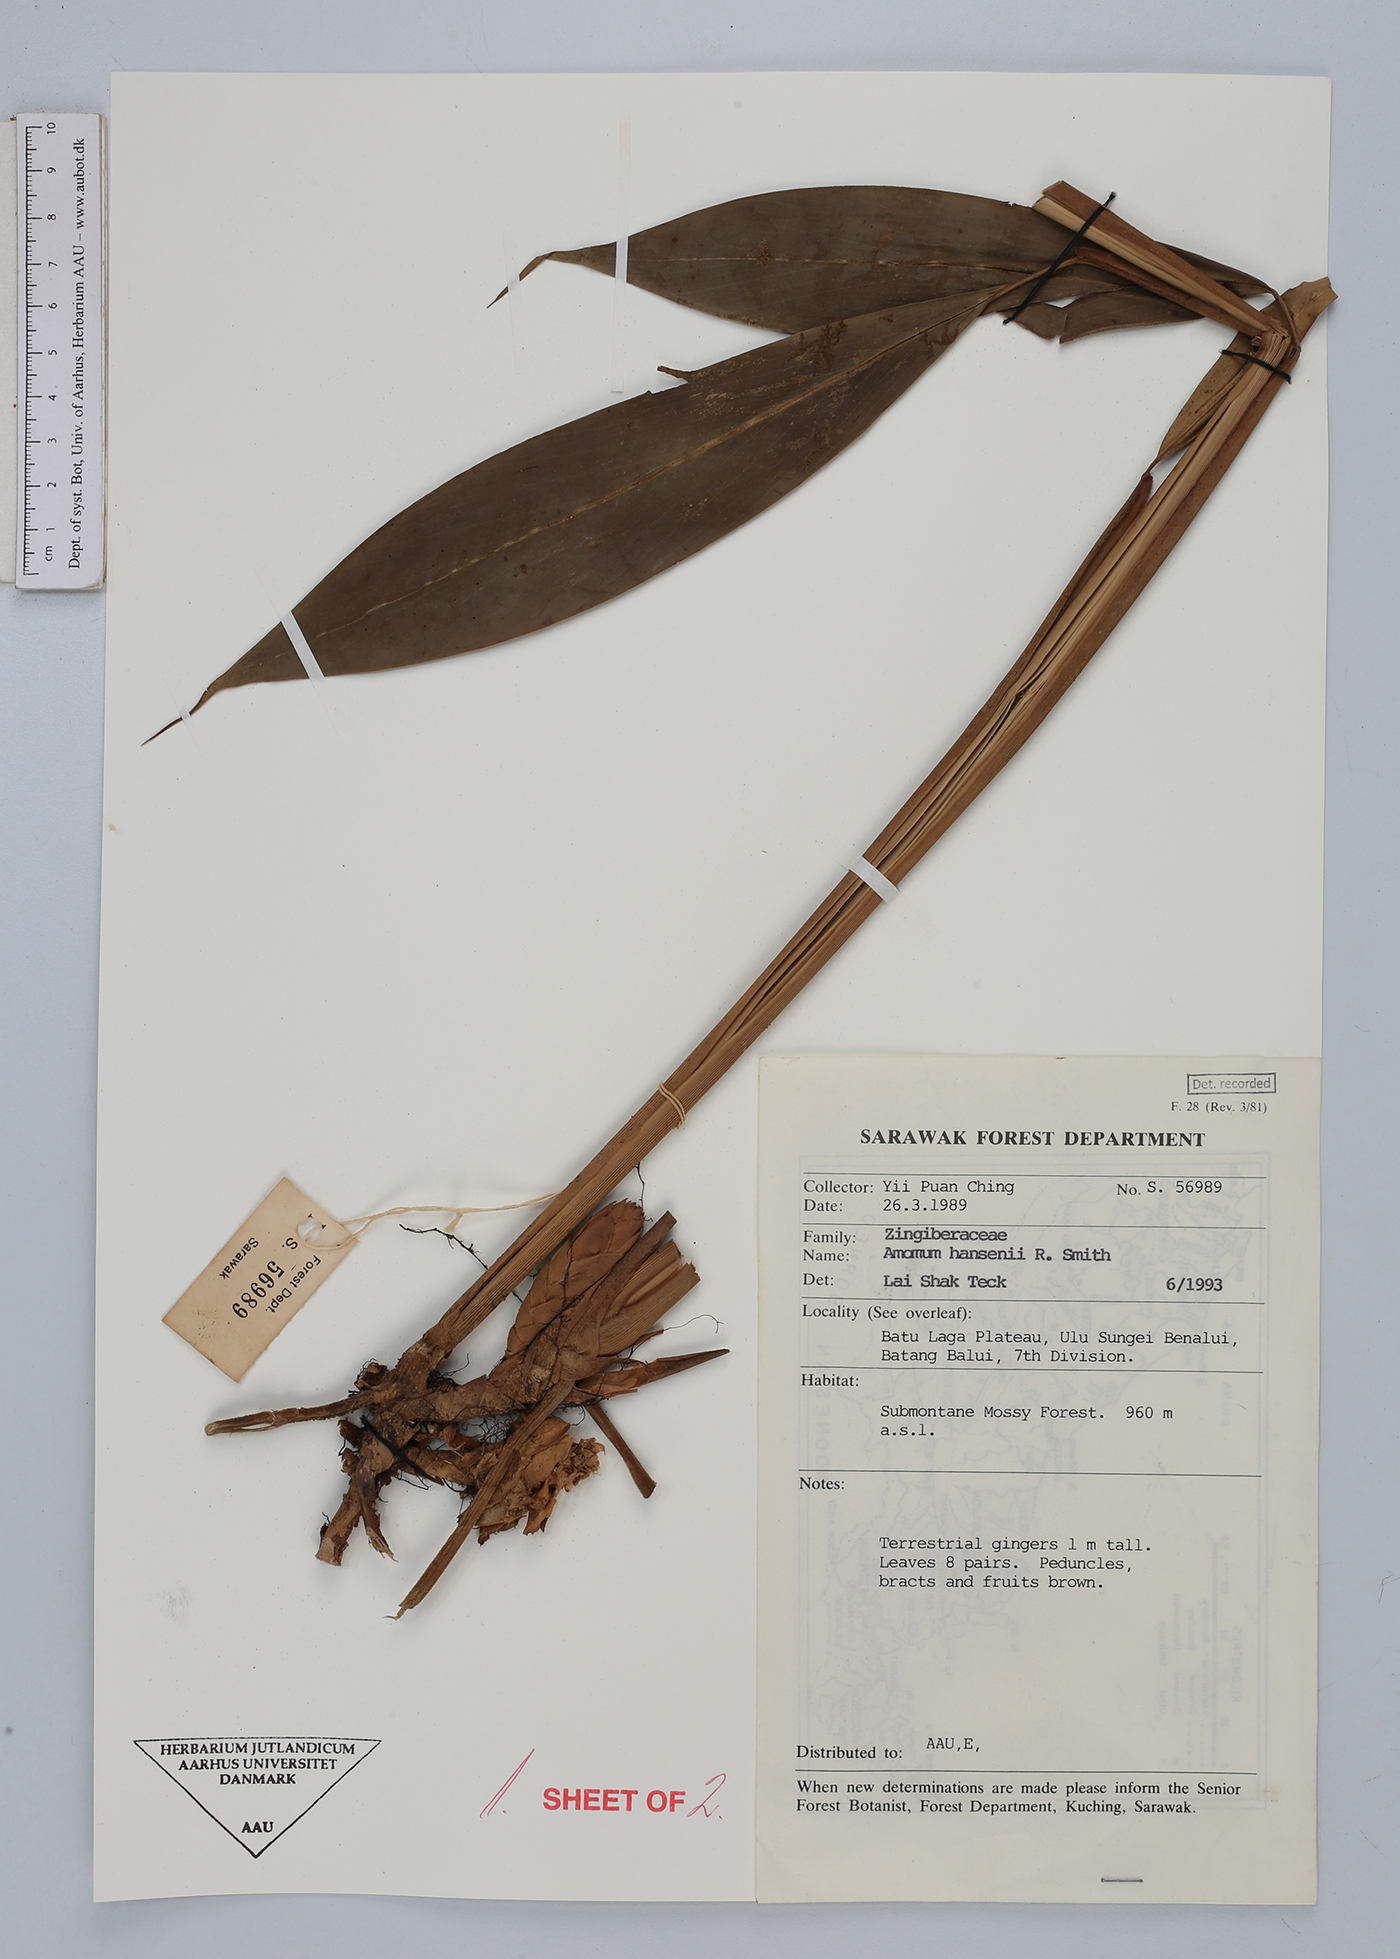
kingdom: Plantae
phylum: Tracheophyta
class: Liliopsida
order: Zingiberales
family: Zingiberaceae
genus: Epiamomum
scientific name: Epiamomum hansenii
